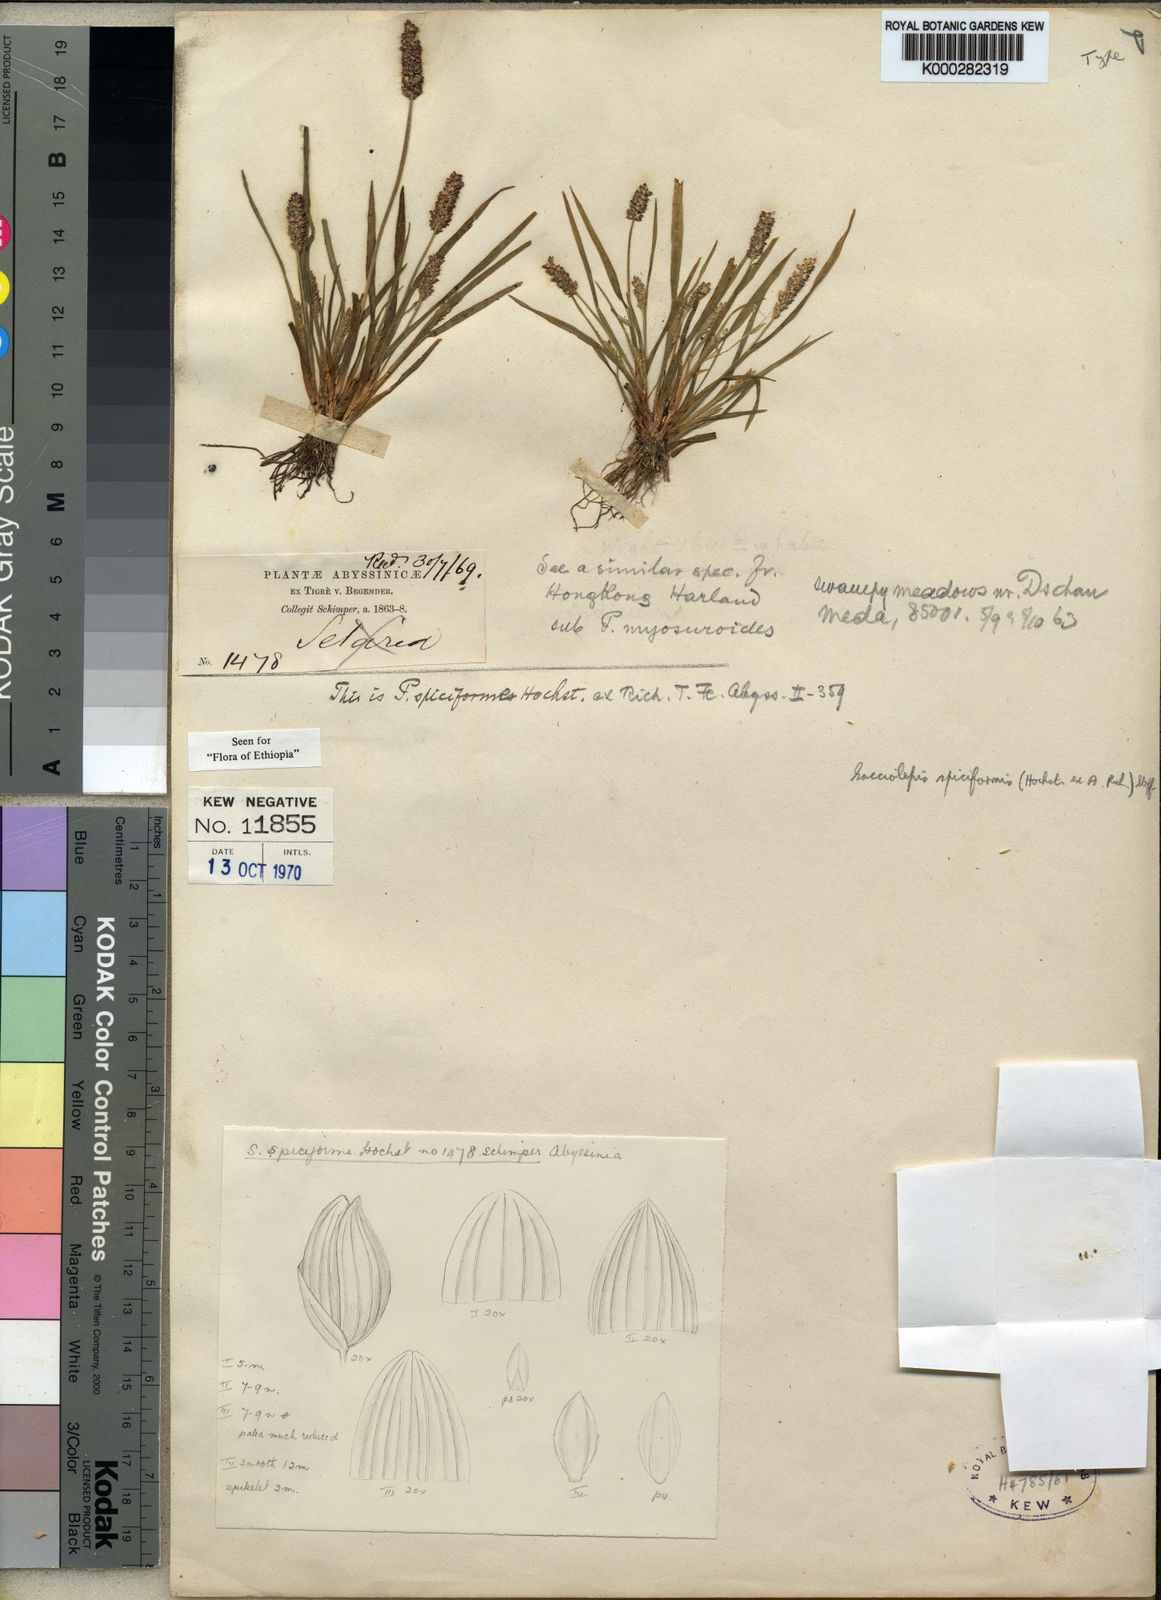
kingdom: Plantae
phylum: Tracheophyta
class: Liliopsida
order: Poales
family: Poaceae
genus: Sacciolepis
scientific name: Sacciolepis myosuroides
